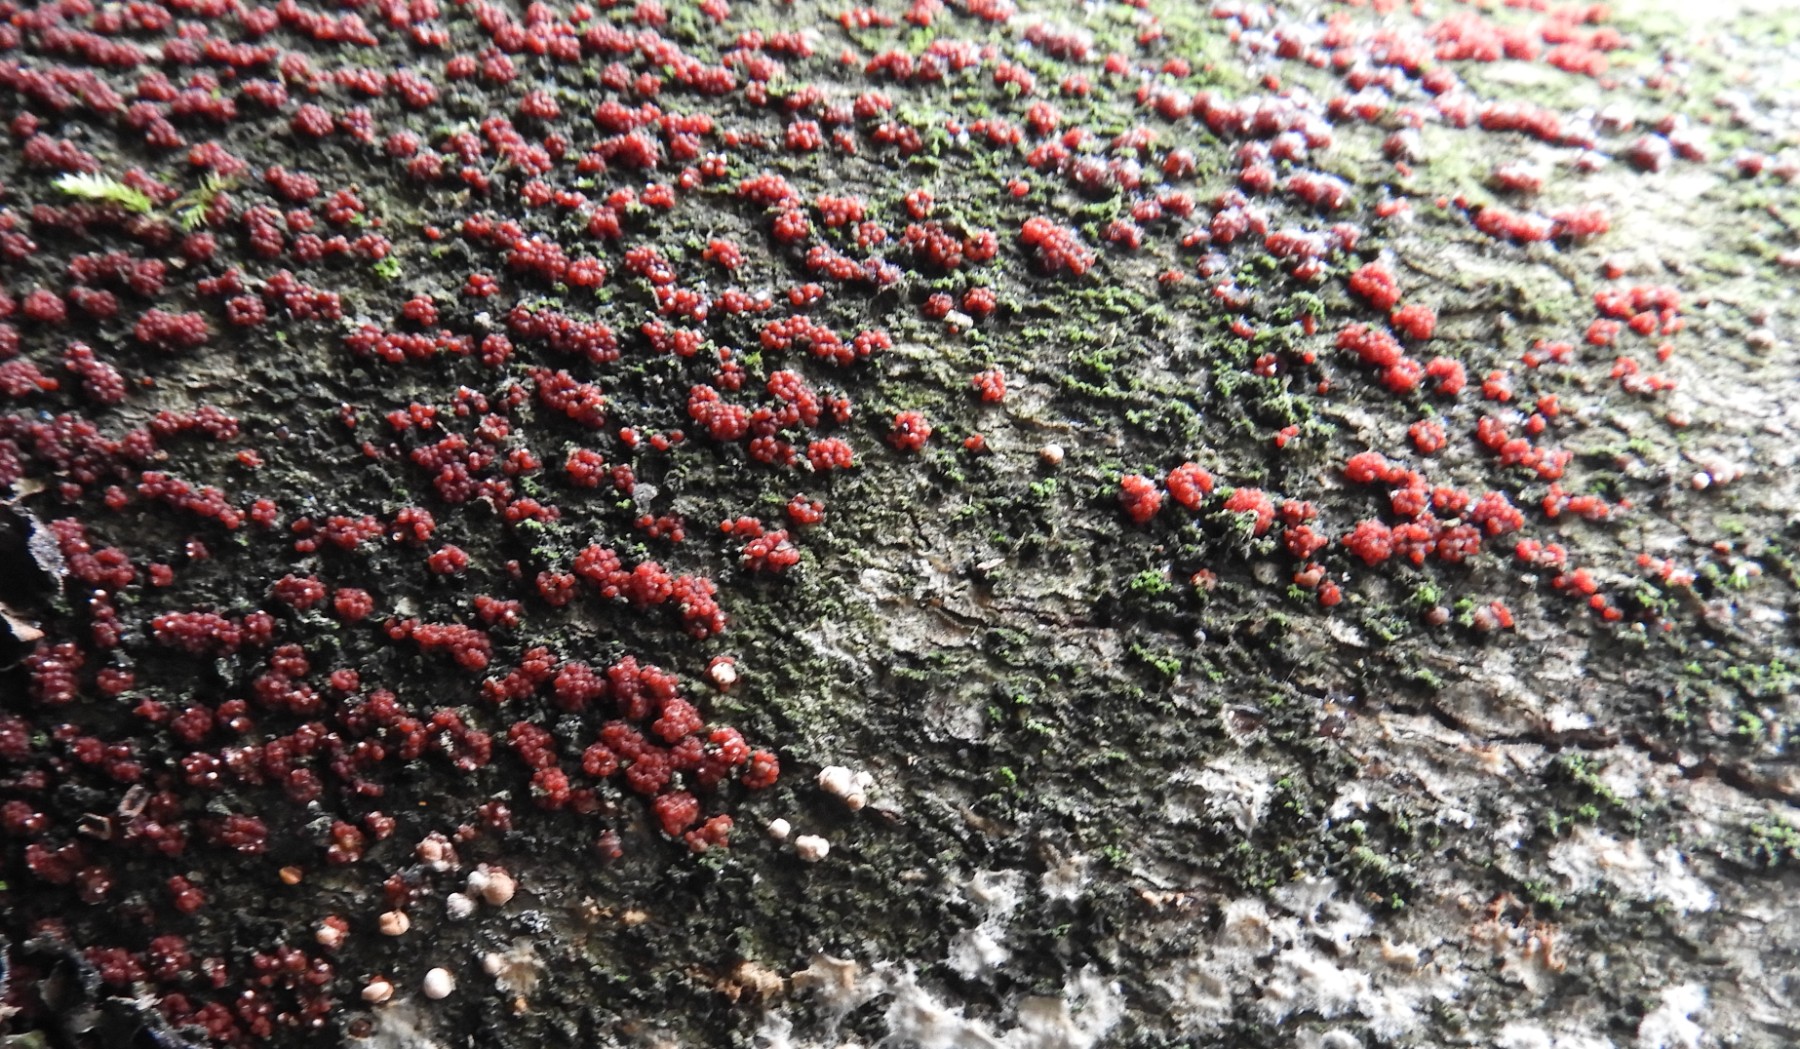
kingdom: Fungi
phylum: Ascomycota
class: Sordariomycetes
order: Hypocreales
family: Nectriaceae
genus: Nectria
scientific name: Nectria cinnabarina
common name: almindelig cinnobersvamp
